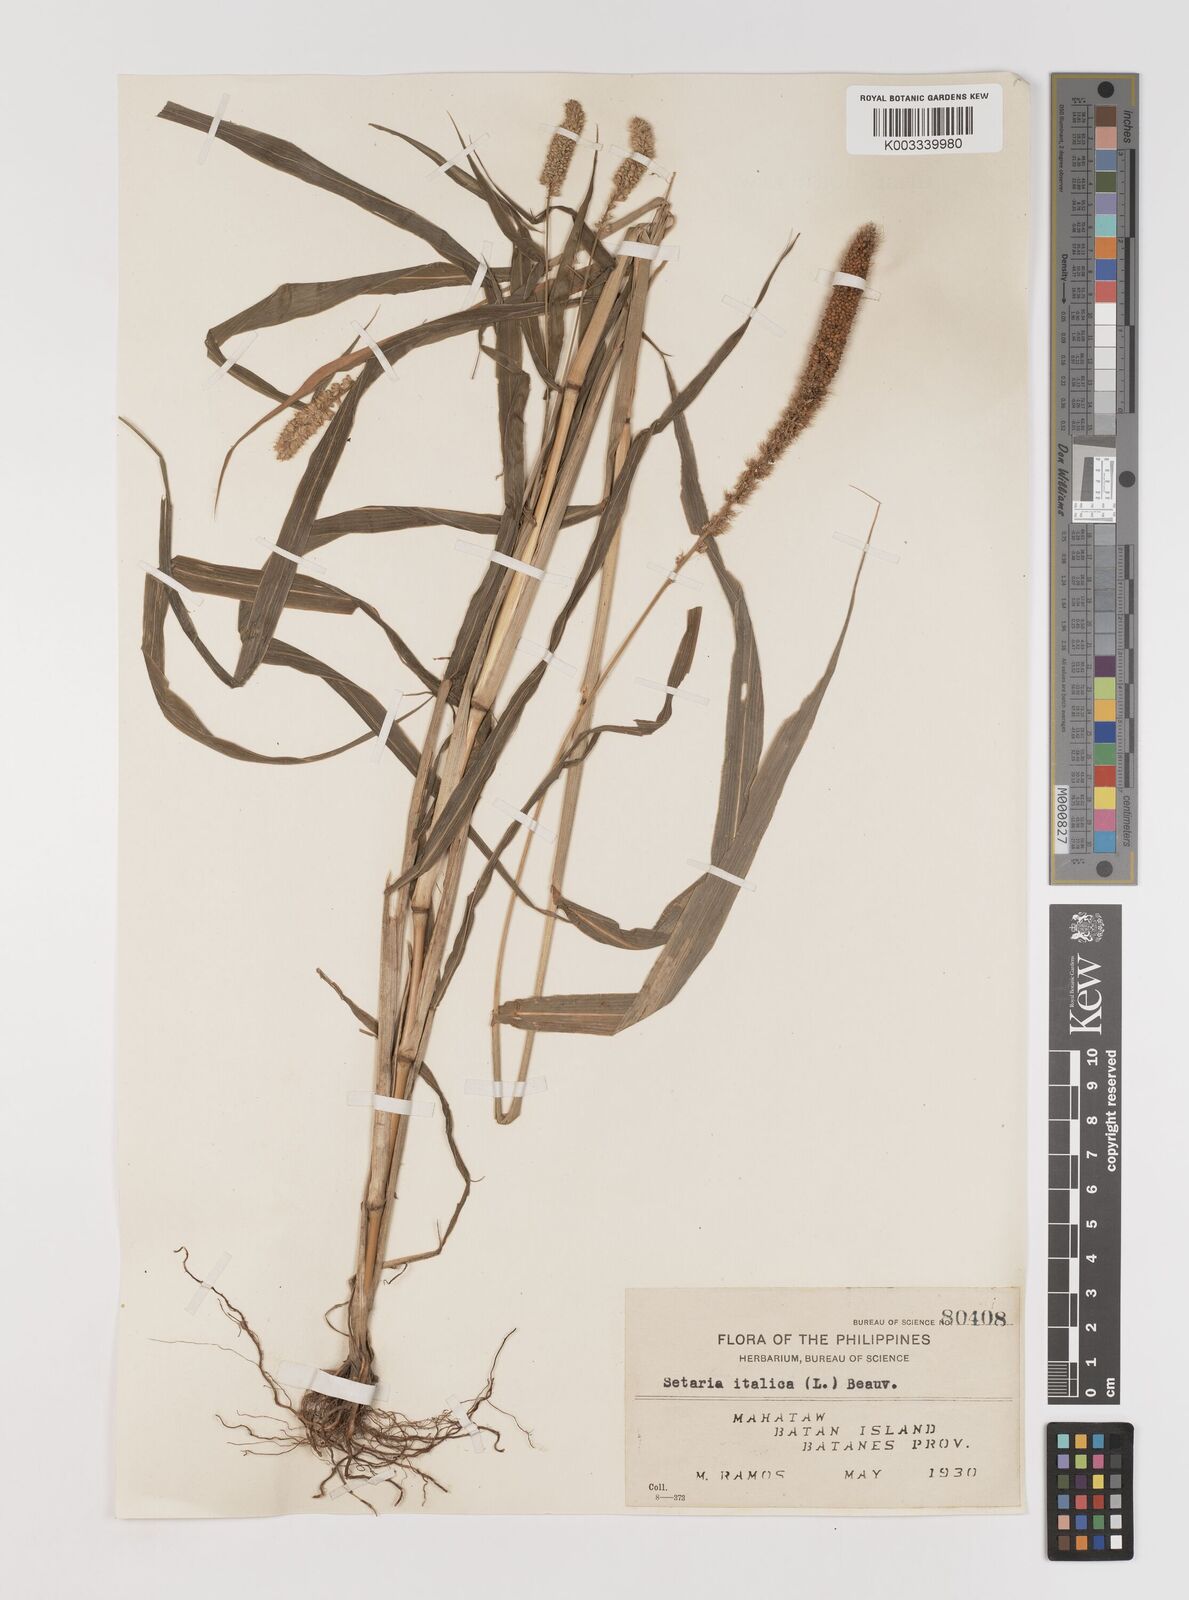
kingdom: Plantae
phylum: Tracheophyta
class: Liliopsida
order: Poales
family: Poaceae
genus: Setaria
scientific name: Setaria italica
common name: Foxtail bristle-grass
